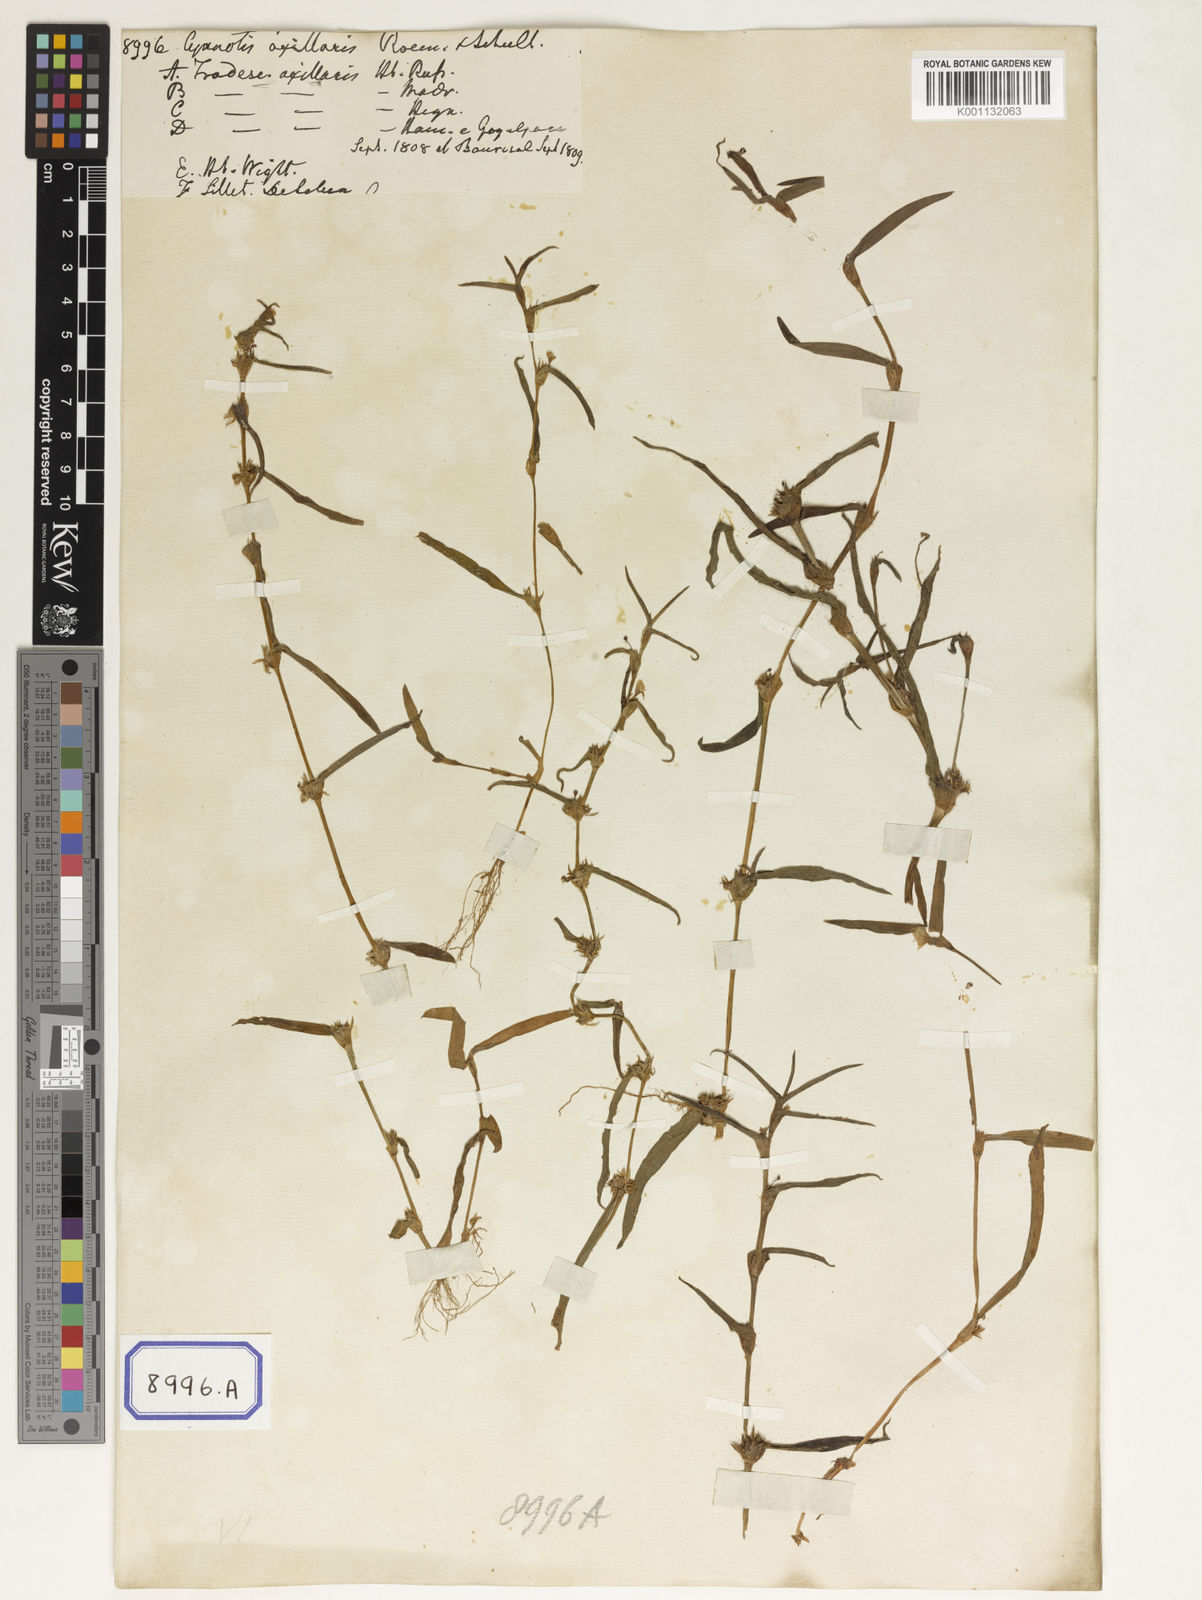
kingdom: Plantae
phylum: Tracheophyta
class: Liliopsida
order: Commelinales
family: Commelinaceae
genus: Cyanotis
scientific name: Cyanotis
